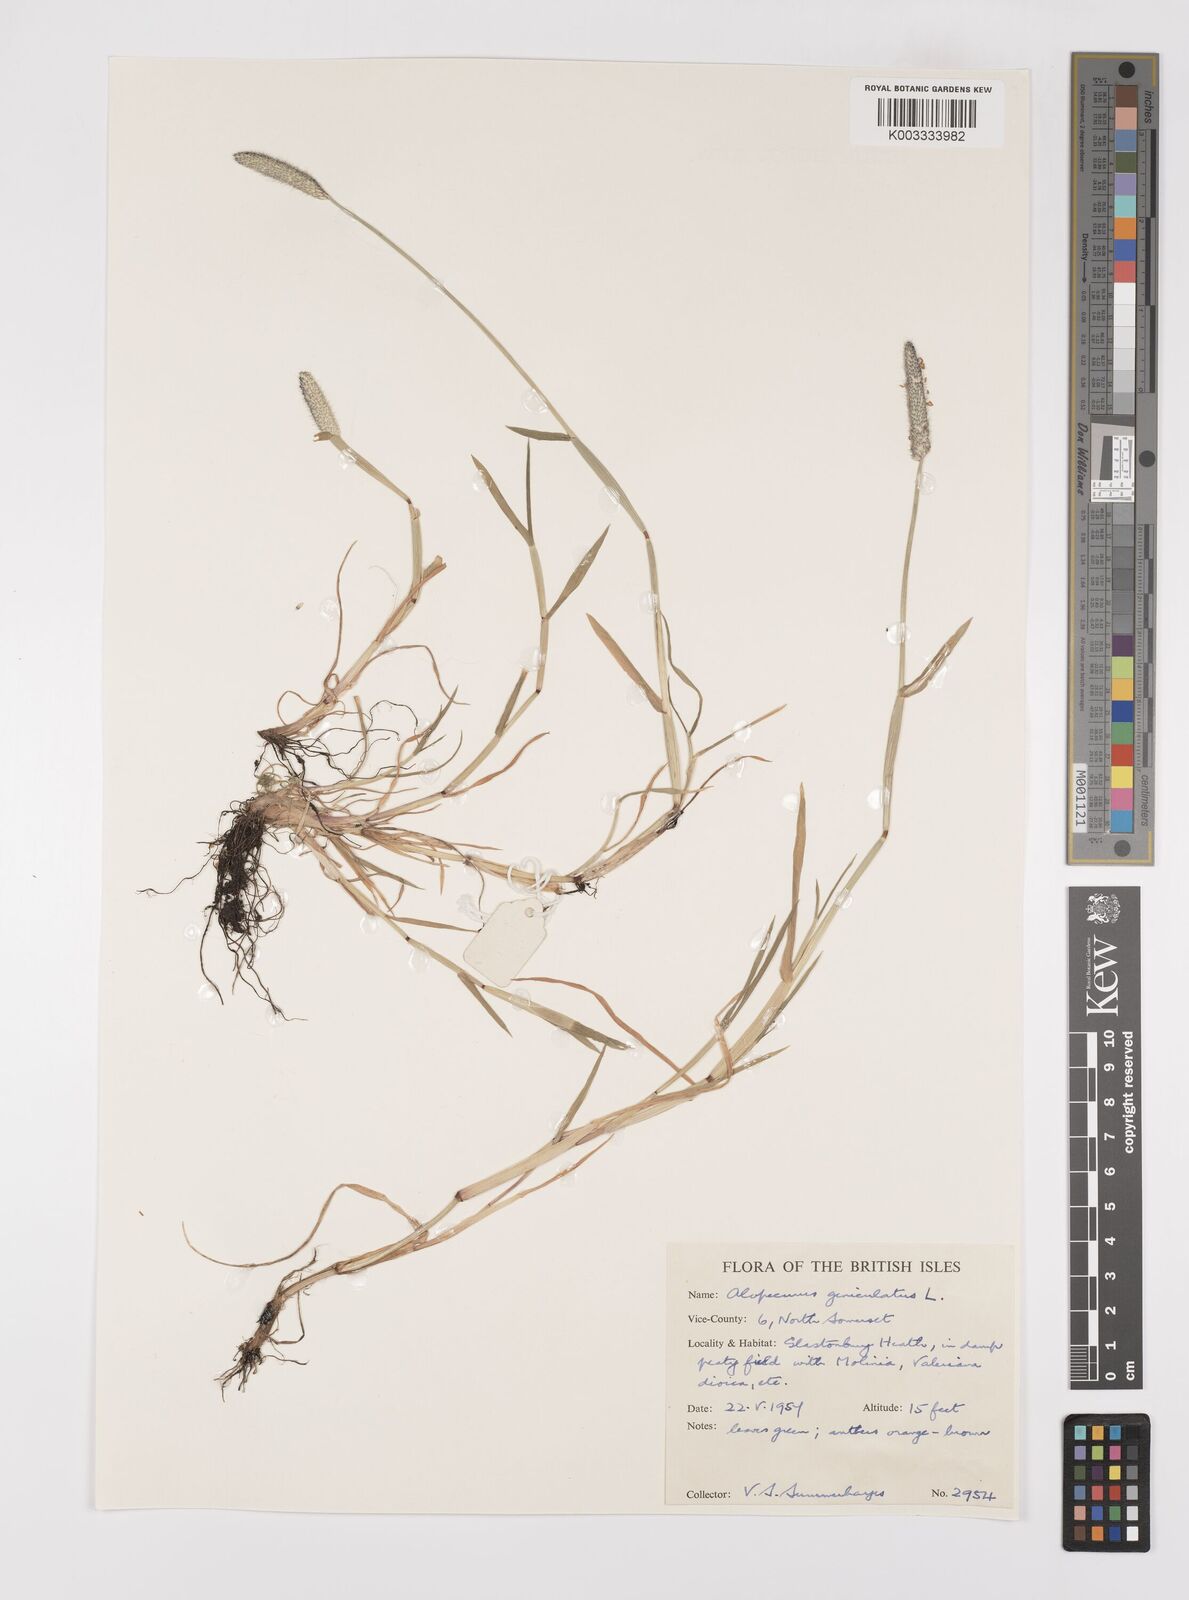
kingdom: Plantae
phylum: Tracheophyta
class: Liliopsida
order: Poales
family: Poaceae
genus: Alopecurus
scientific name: Alopecurus geniculatus
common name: Water foxtail
